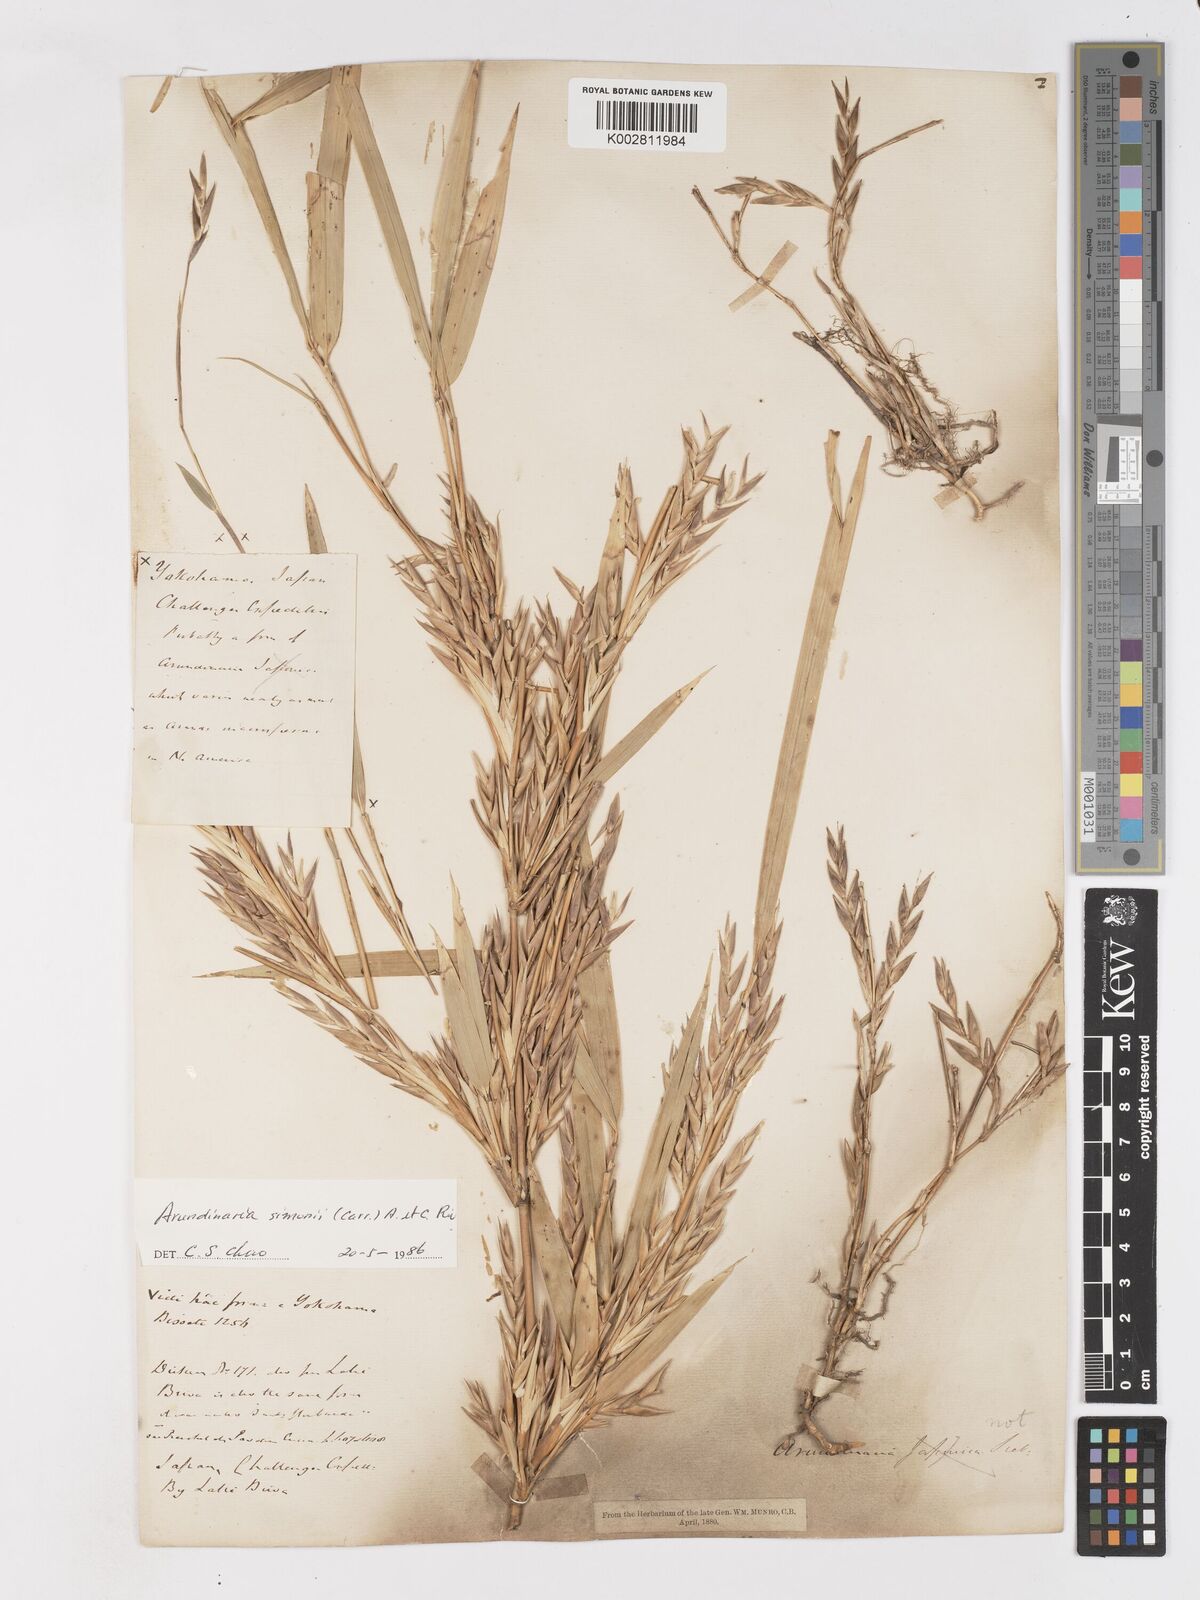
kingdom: Plantae
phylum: Tracheophyta
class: Liliopsida
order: Poales
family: Poaceae
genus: Pleioblastus
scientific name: Pleioblastus simonii
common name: Simon bamboo
